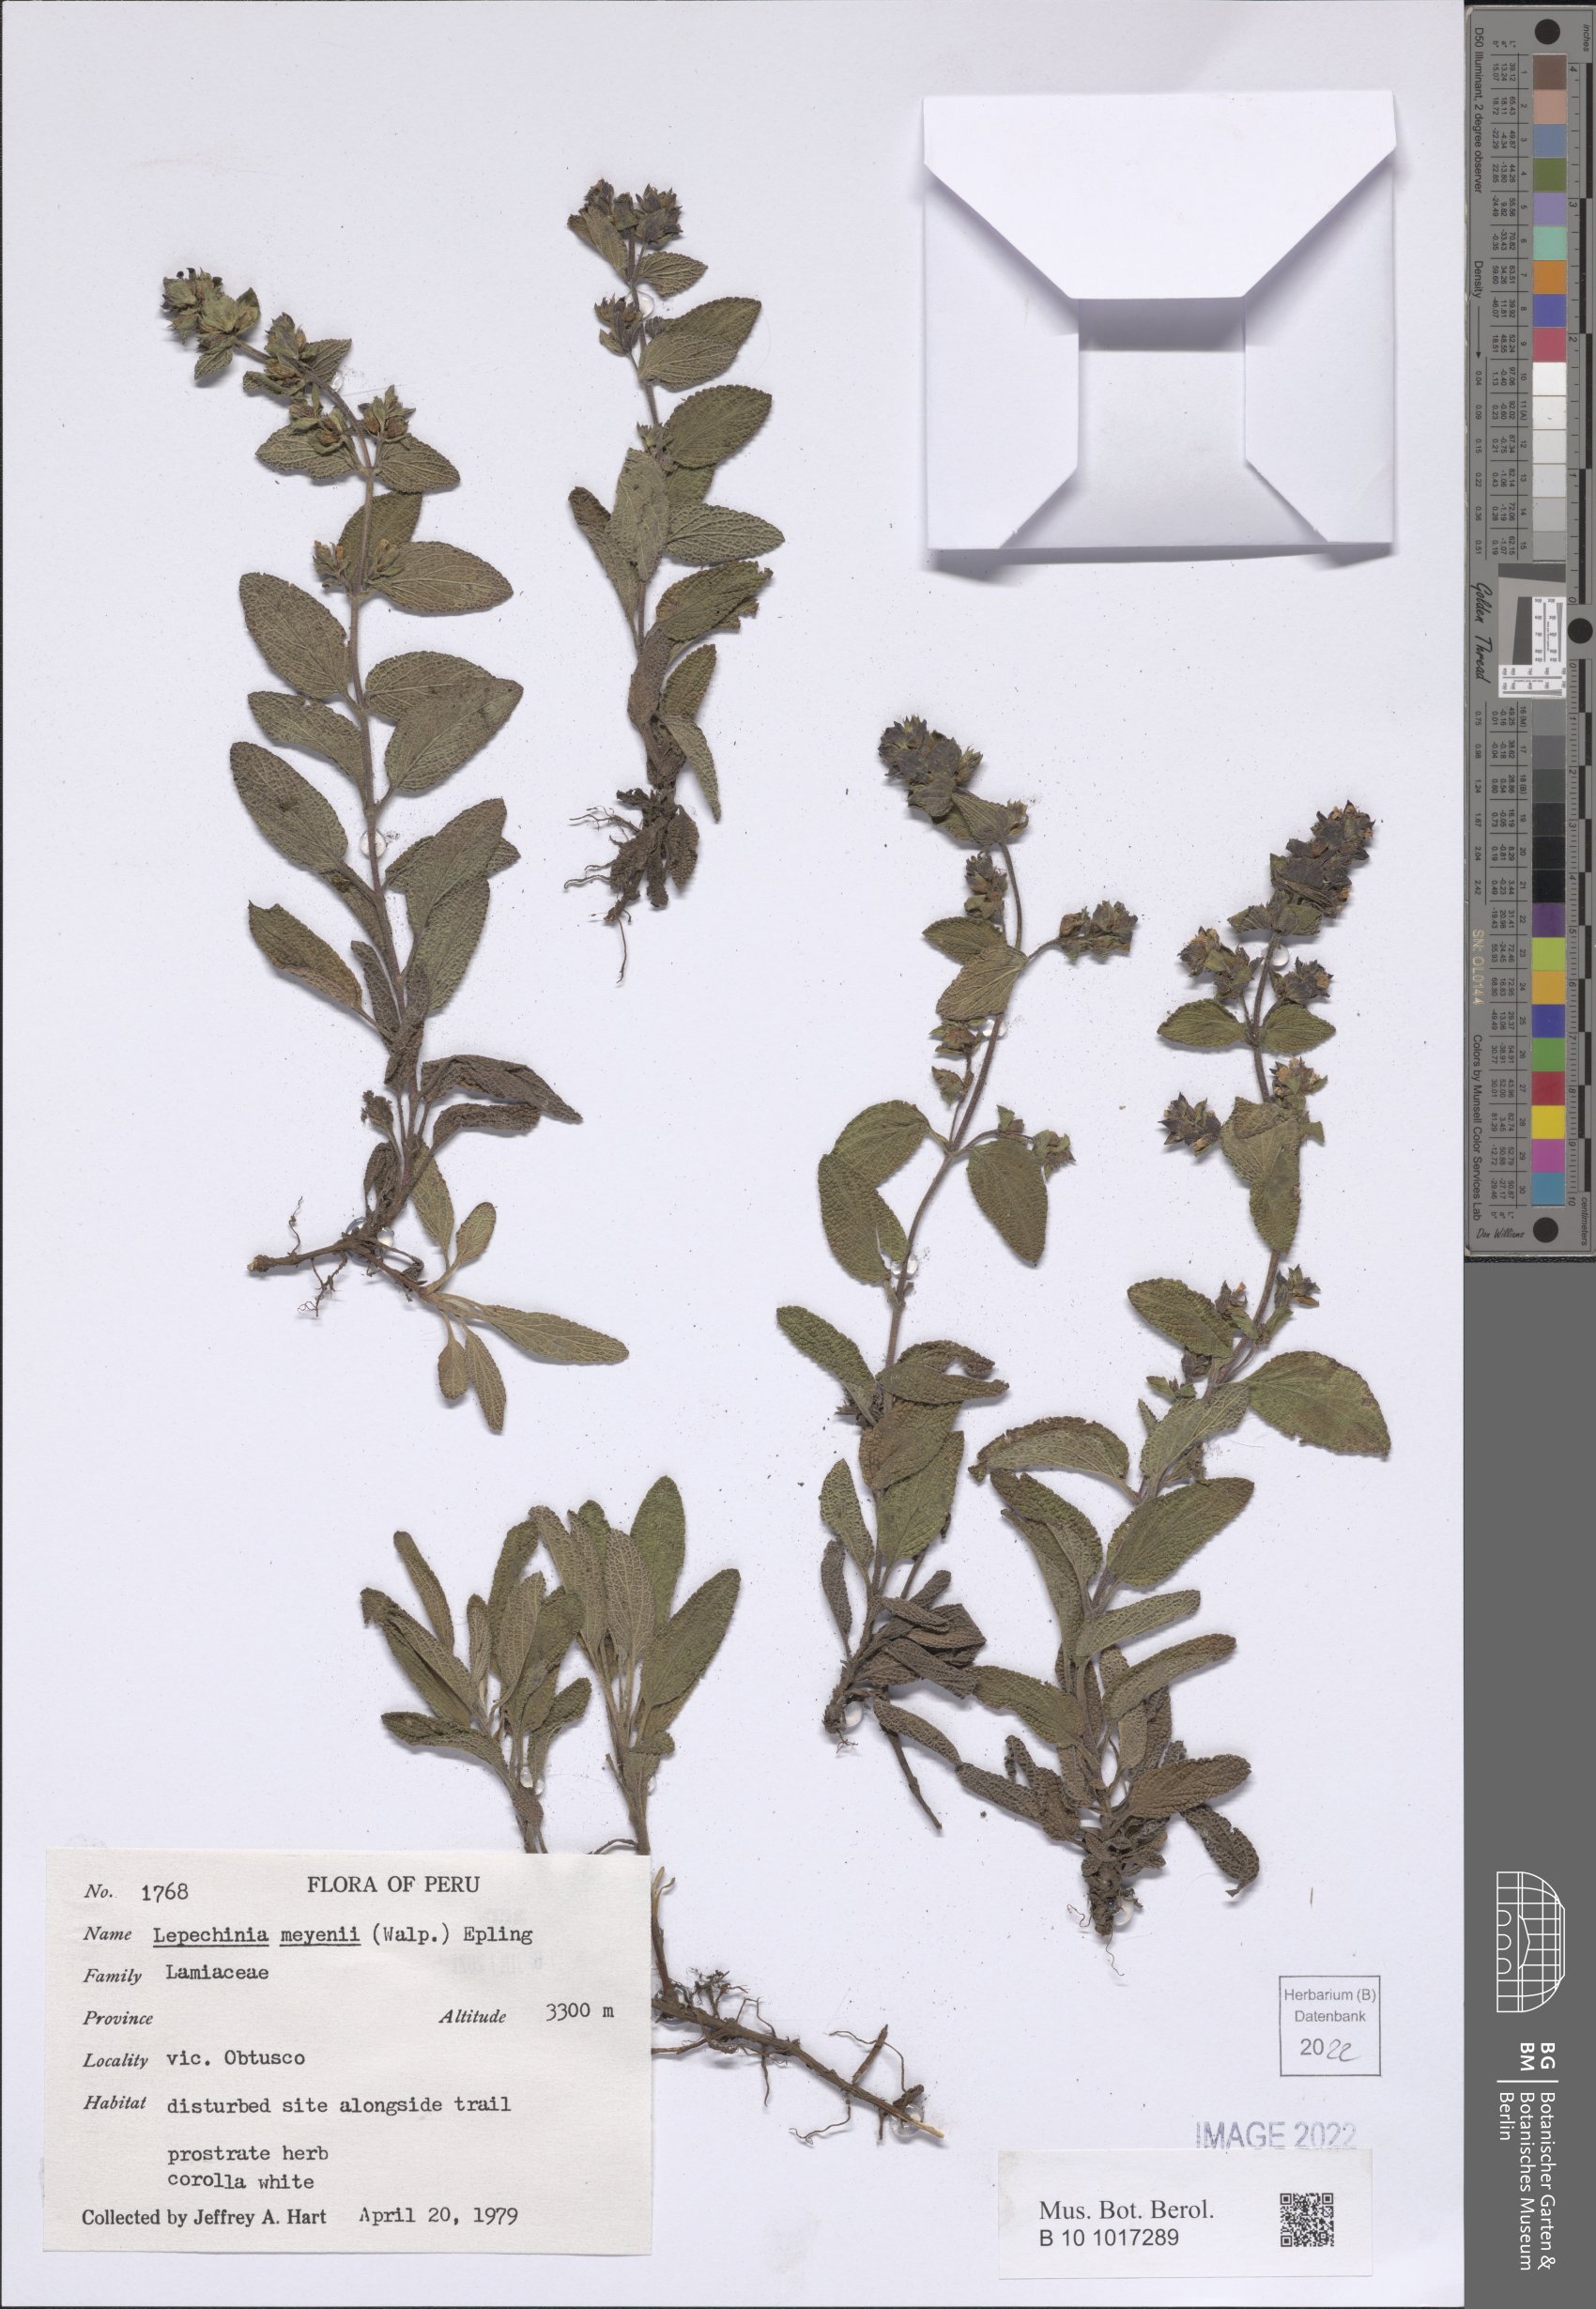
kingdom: Plantae
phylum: Tracheophyta
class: Magnoliopsida
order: Lamiales
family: Lamiaceae
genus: Lepechinia
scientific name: Lepechinia meyenii
